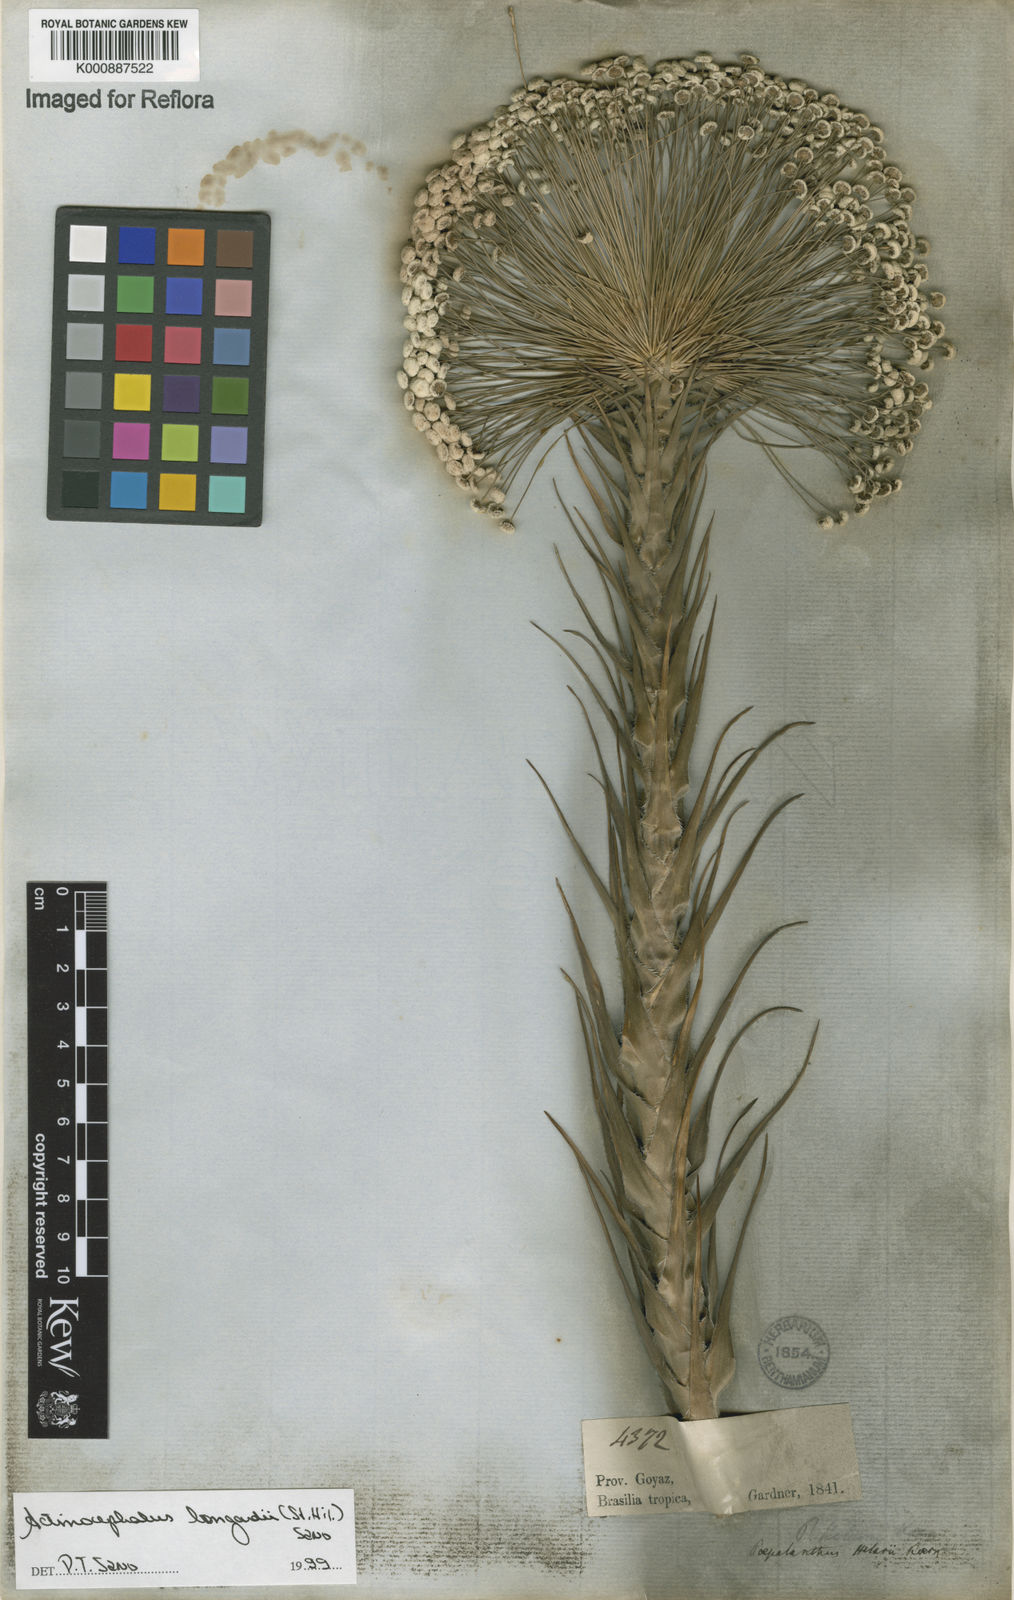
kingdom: Plantae
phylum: Tracheophyta
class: Liliopsida
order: Poales
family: Eriocaulaceae
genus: Paepalanthus
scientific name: Paepalanthus hilairei
